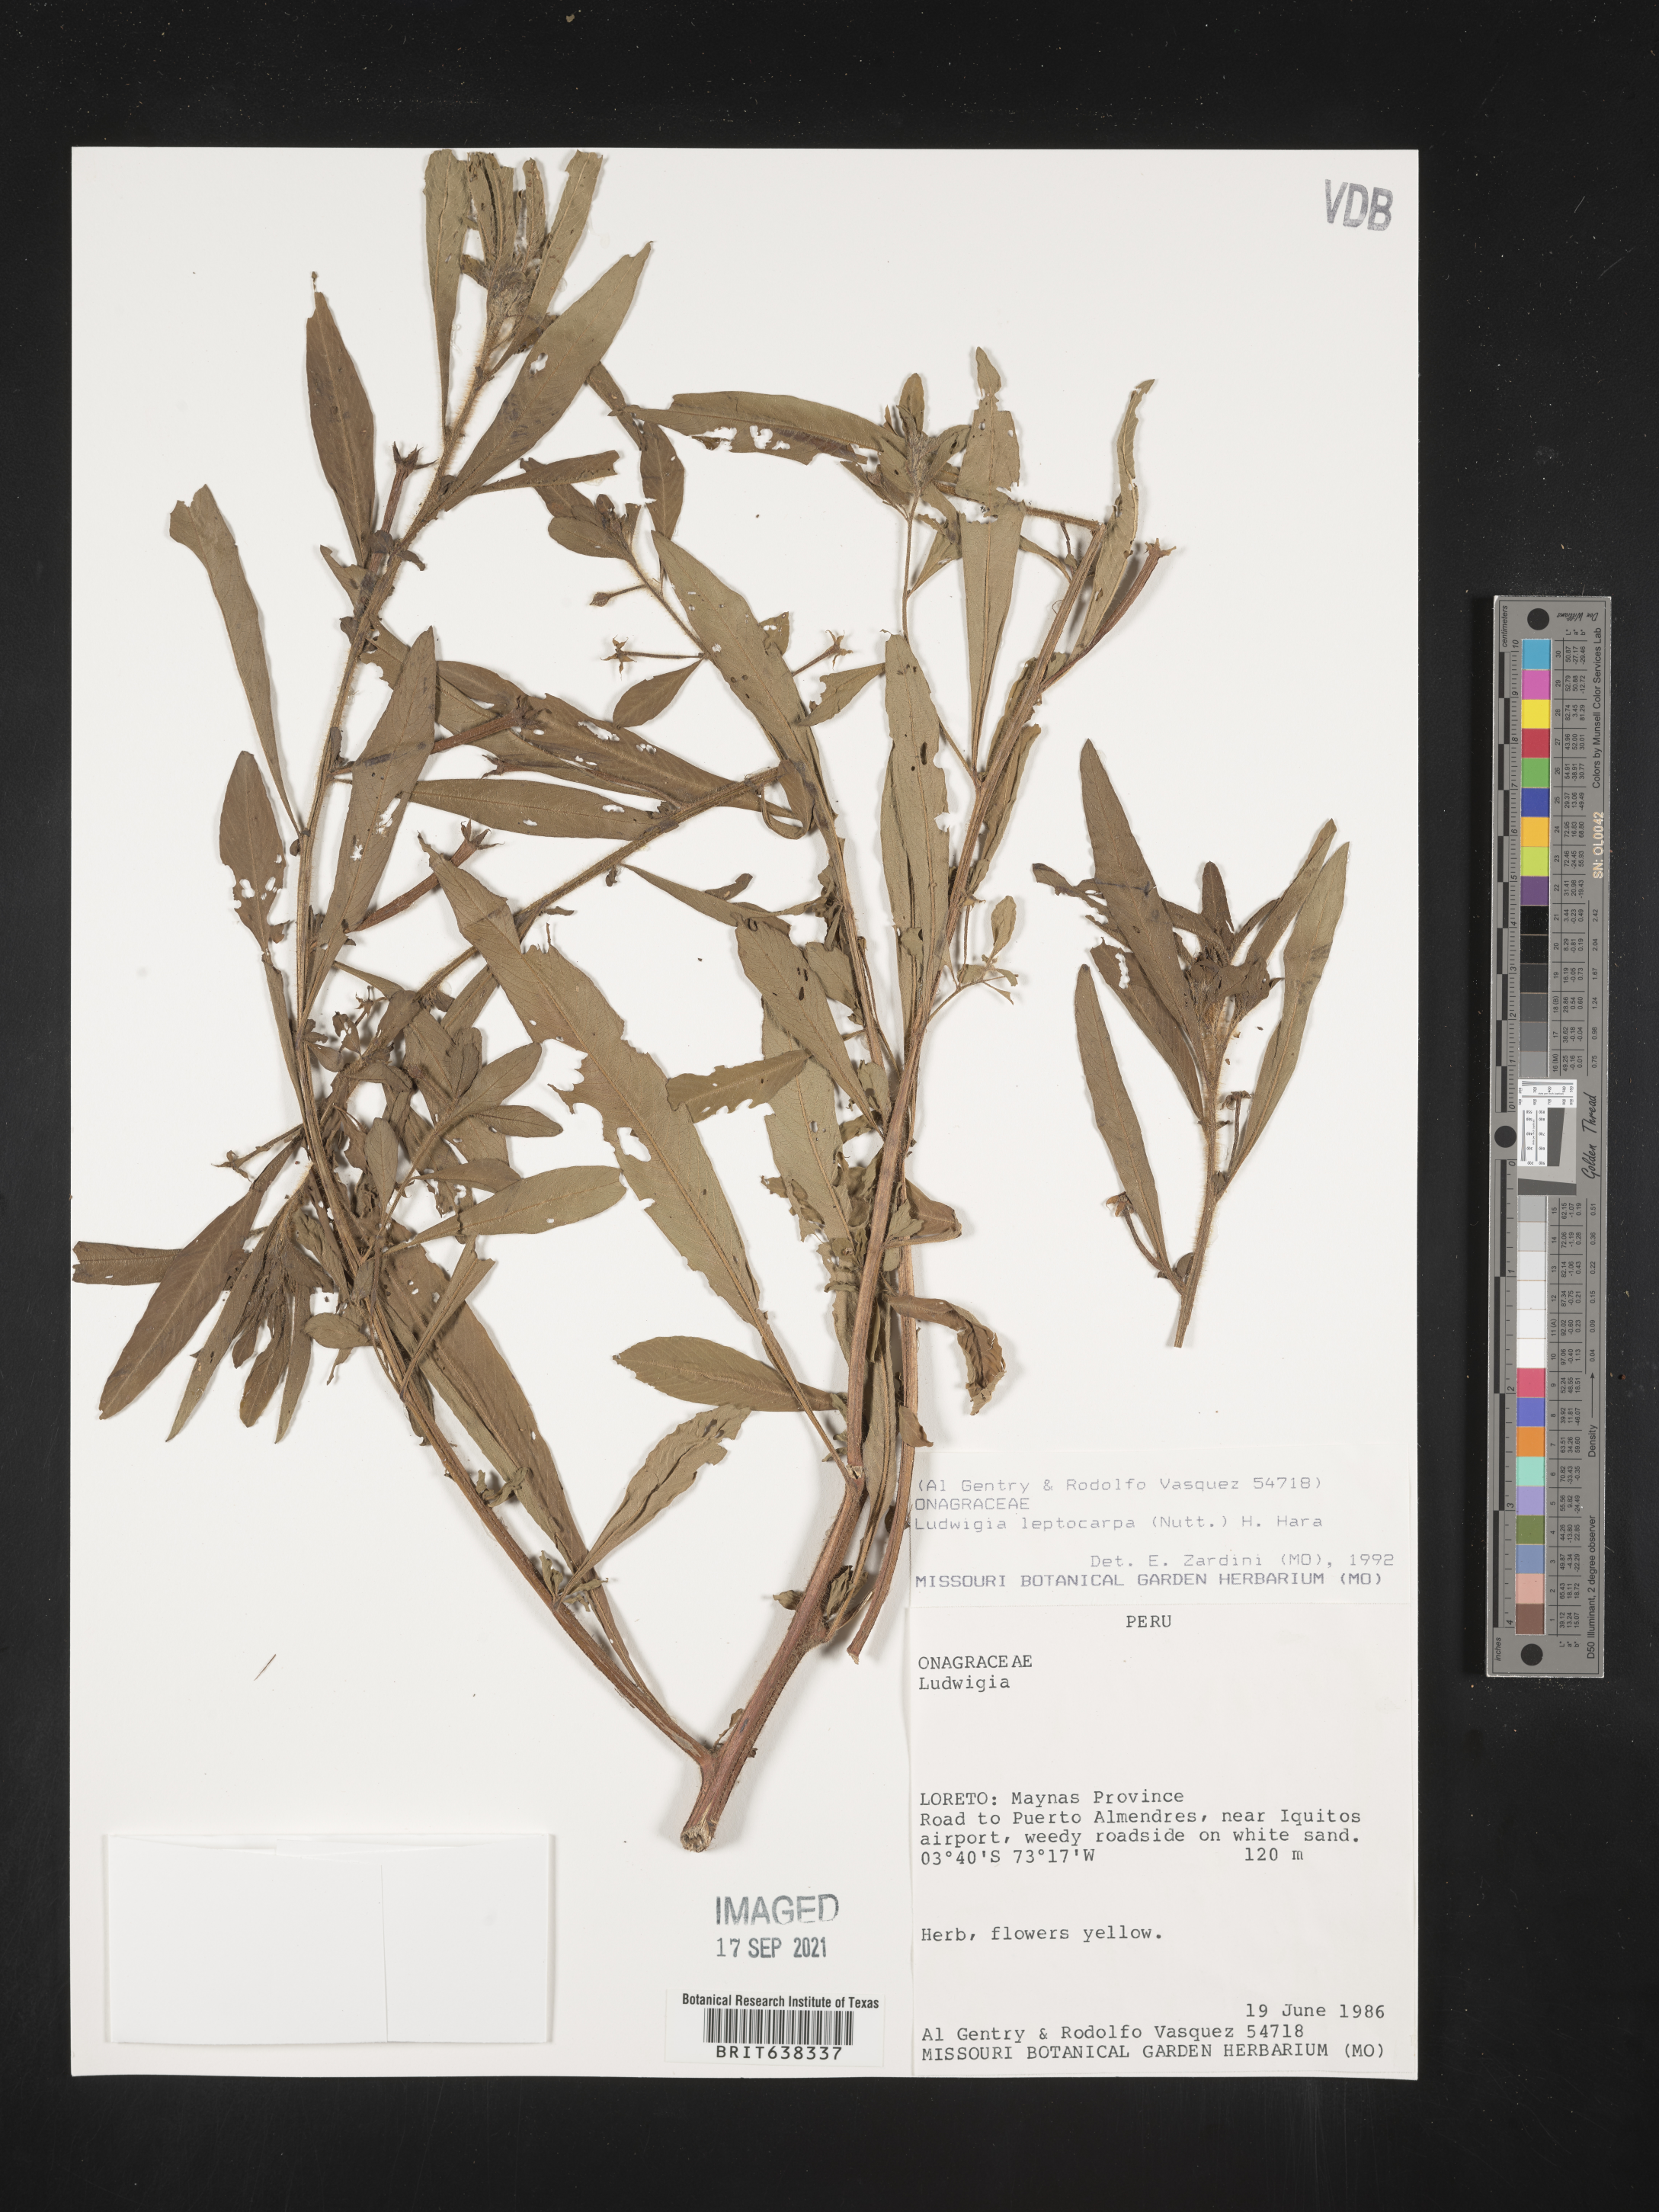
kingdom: Plantae
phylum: Tracheophyta
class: Magnoliopsida
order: Myrtales
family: Onagraceae
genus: Ludwigia
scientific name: Ludwigia
